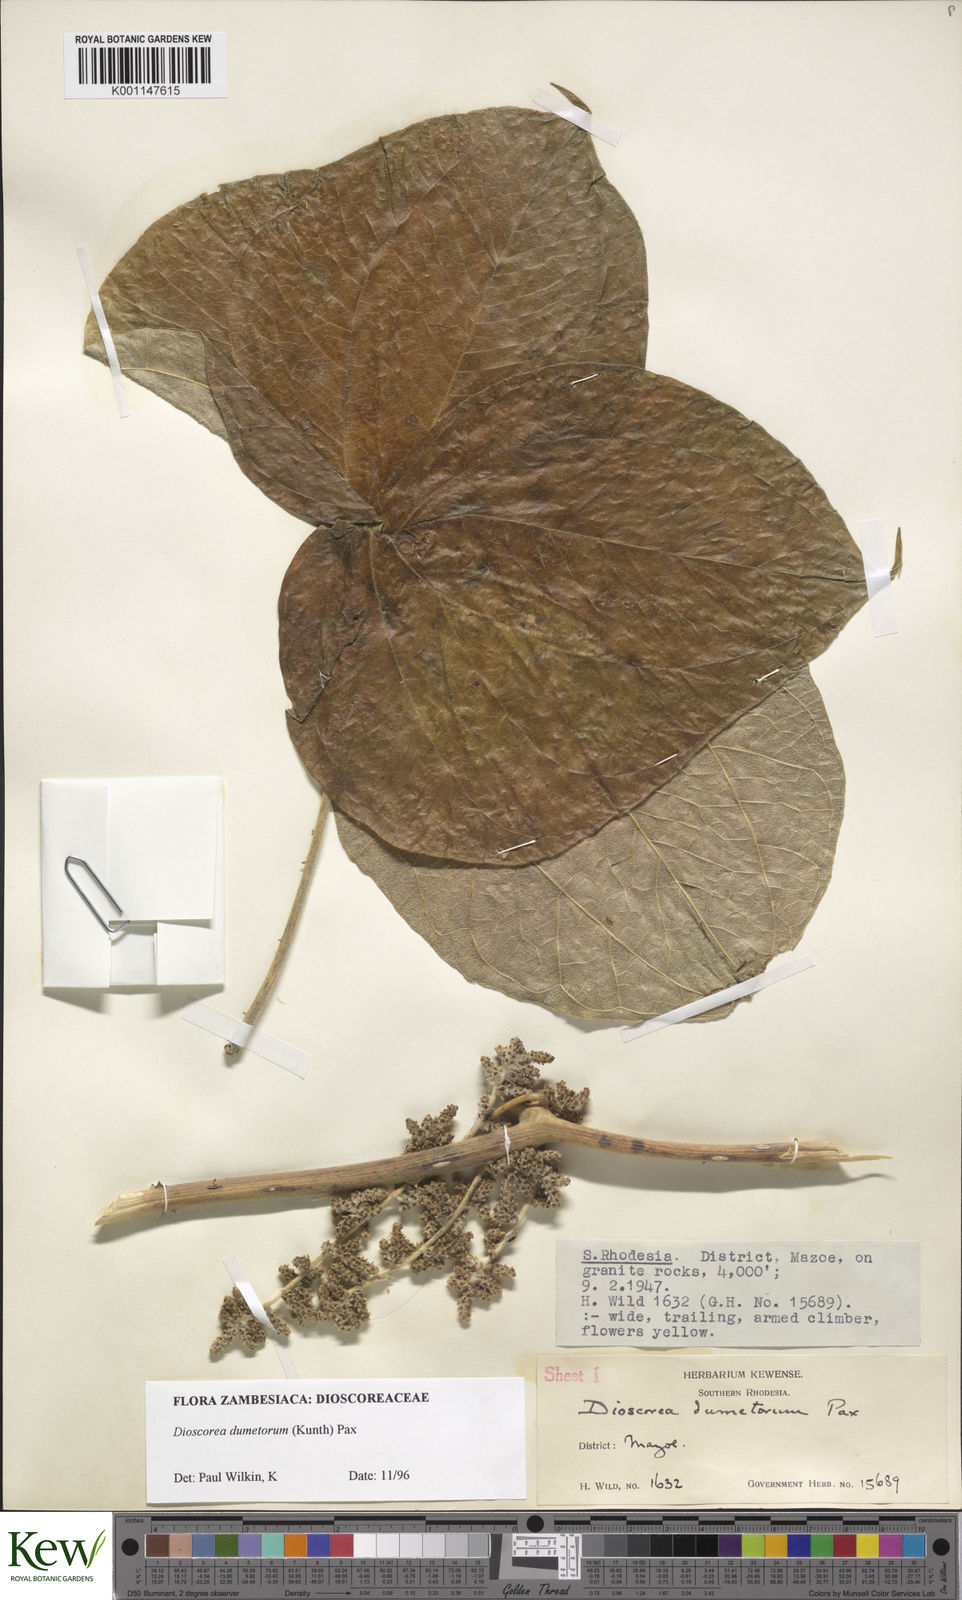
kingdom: Plantae
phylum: Tracheophyta
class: Liliopsida
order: Dioscoreales
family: Dioscoreaceae
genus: Dioscorea
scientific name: Dioscorea dumetorum
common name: African bitter yam
